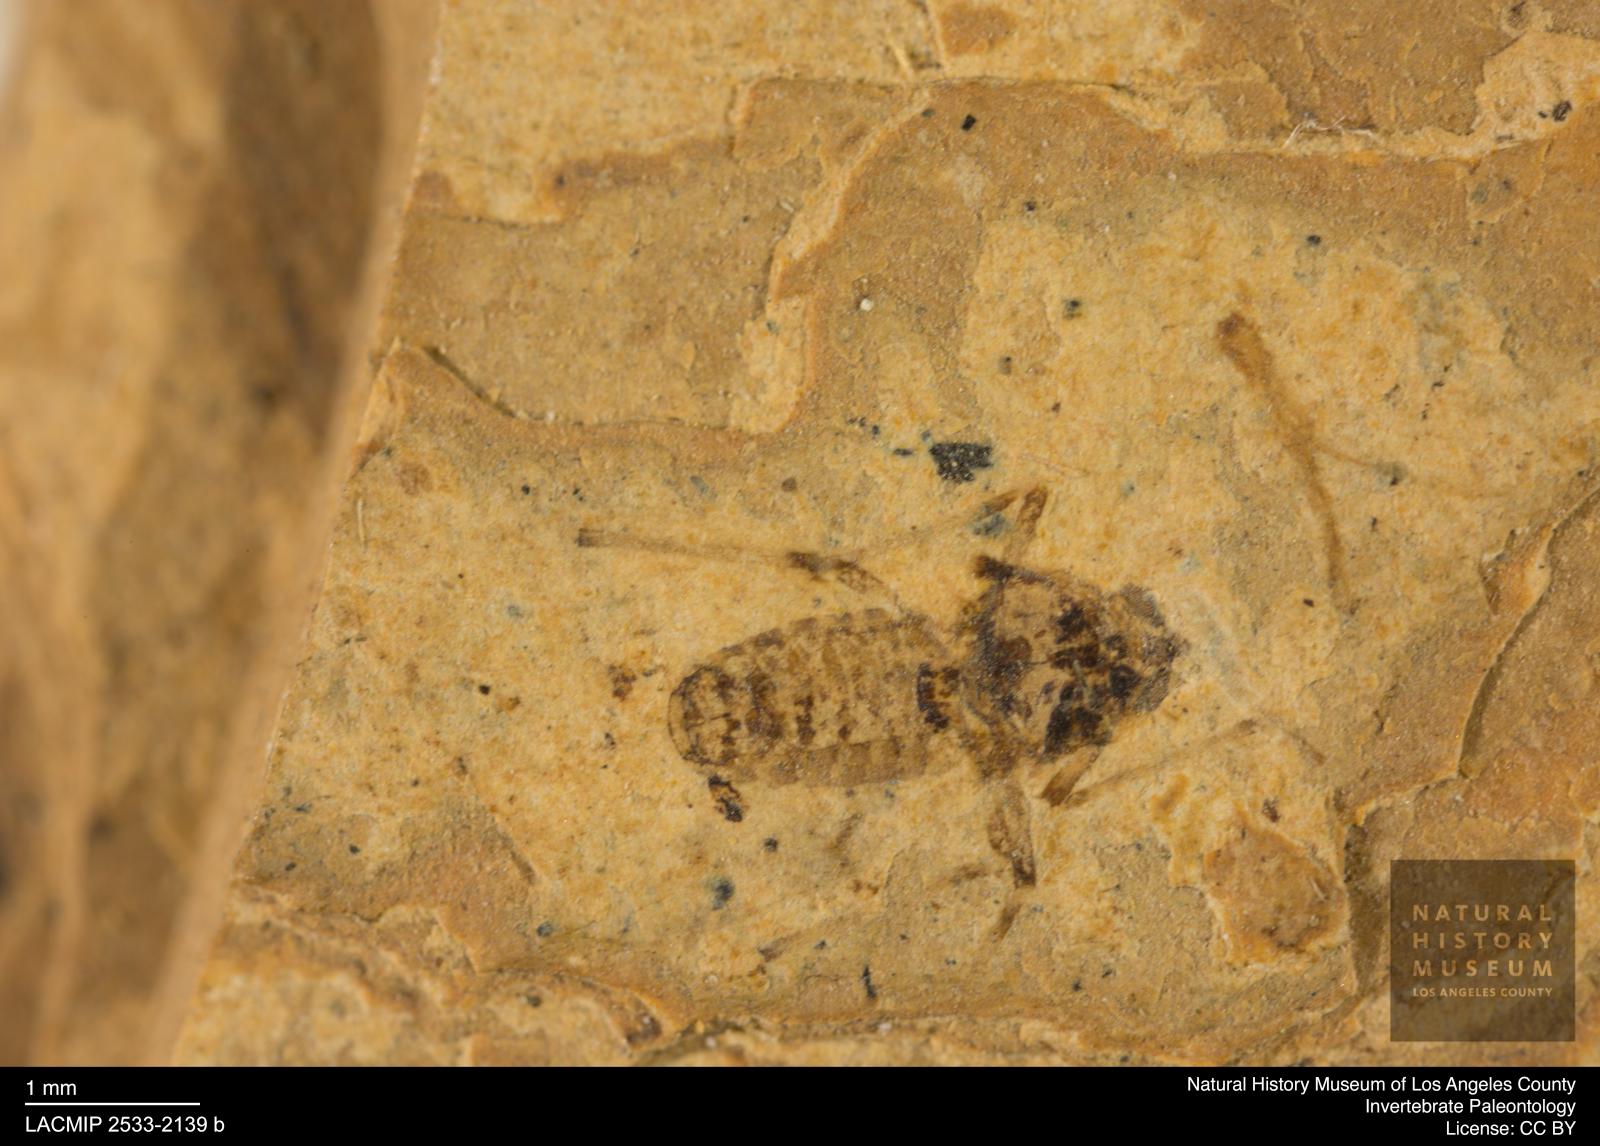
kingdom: Animalia
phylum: Arthropoda
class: Insecta
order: Diptera
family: Chironomidae
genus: Tanypus
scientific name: Tanypus dorminans
